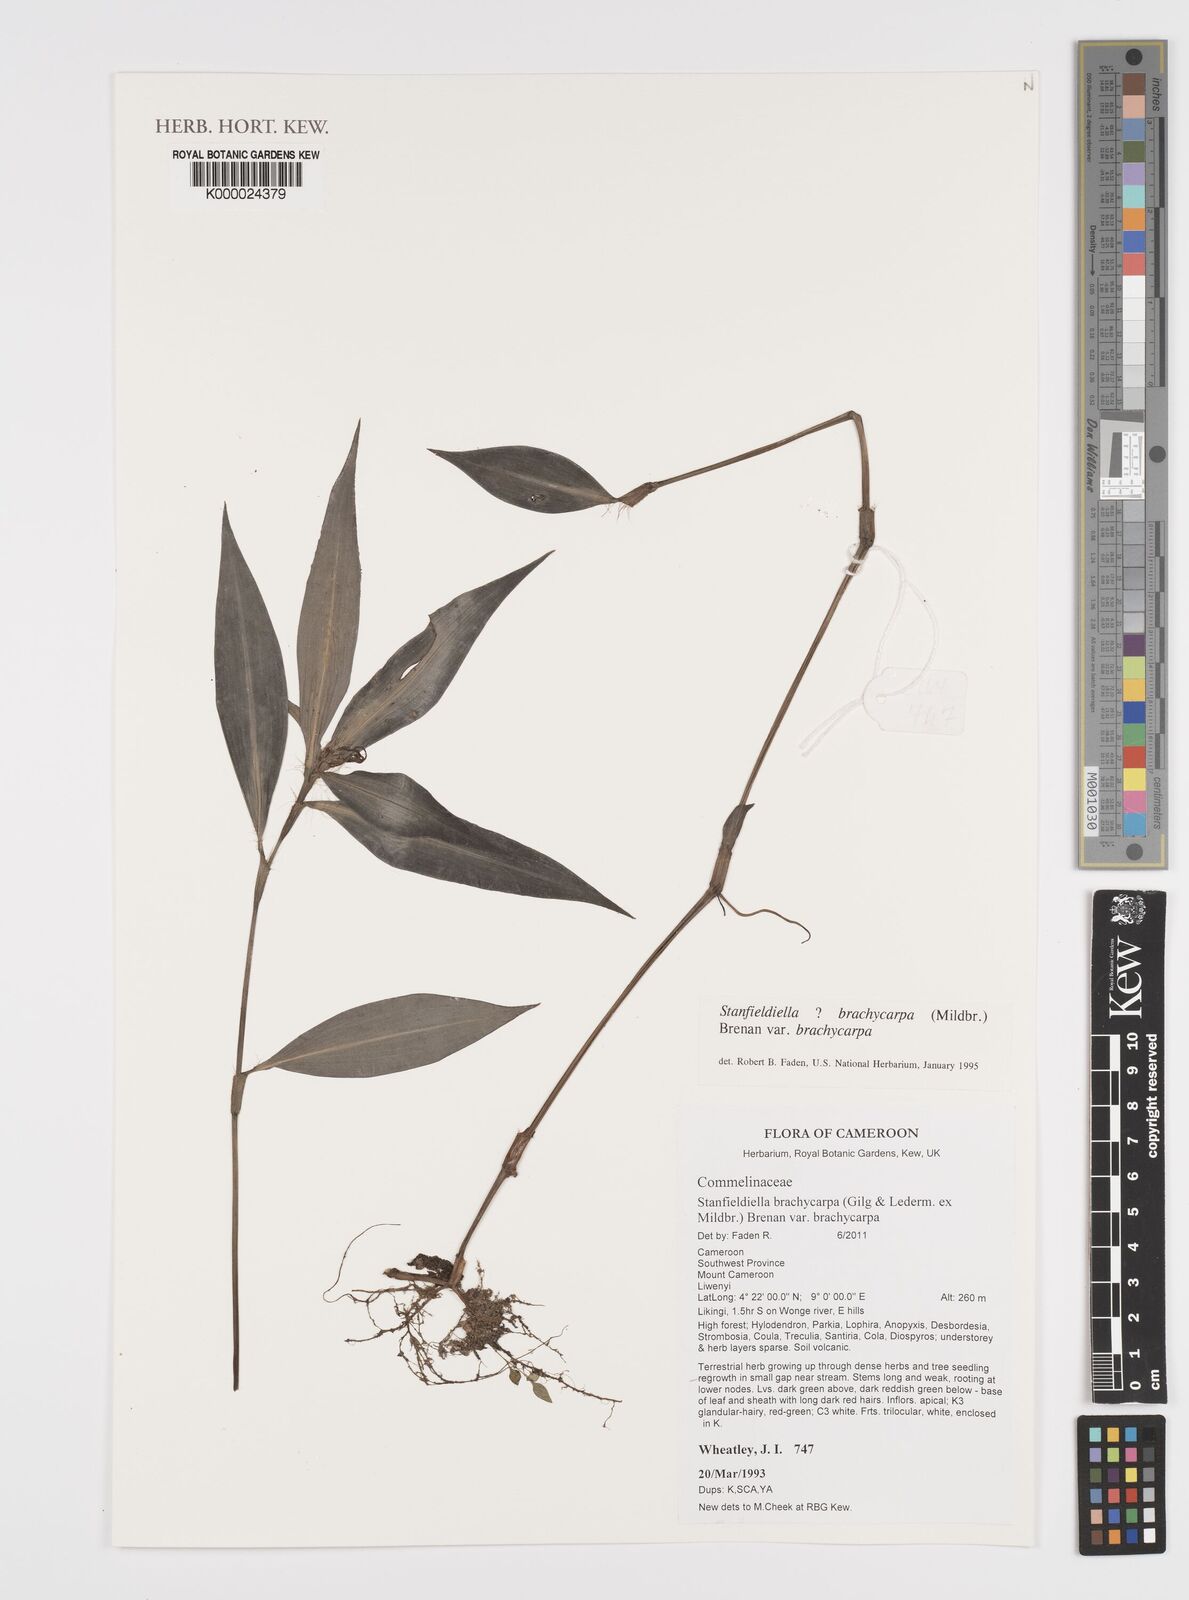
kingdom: Plantae
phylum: Tracheophyta
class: Liliopsida
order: Commelinales
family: Commelinaceae
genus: Stanfieldiella
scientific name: Stanfieldiella brachycarpa
